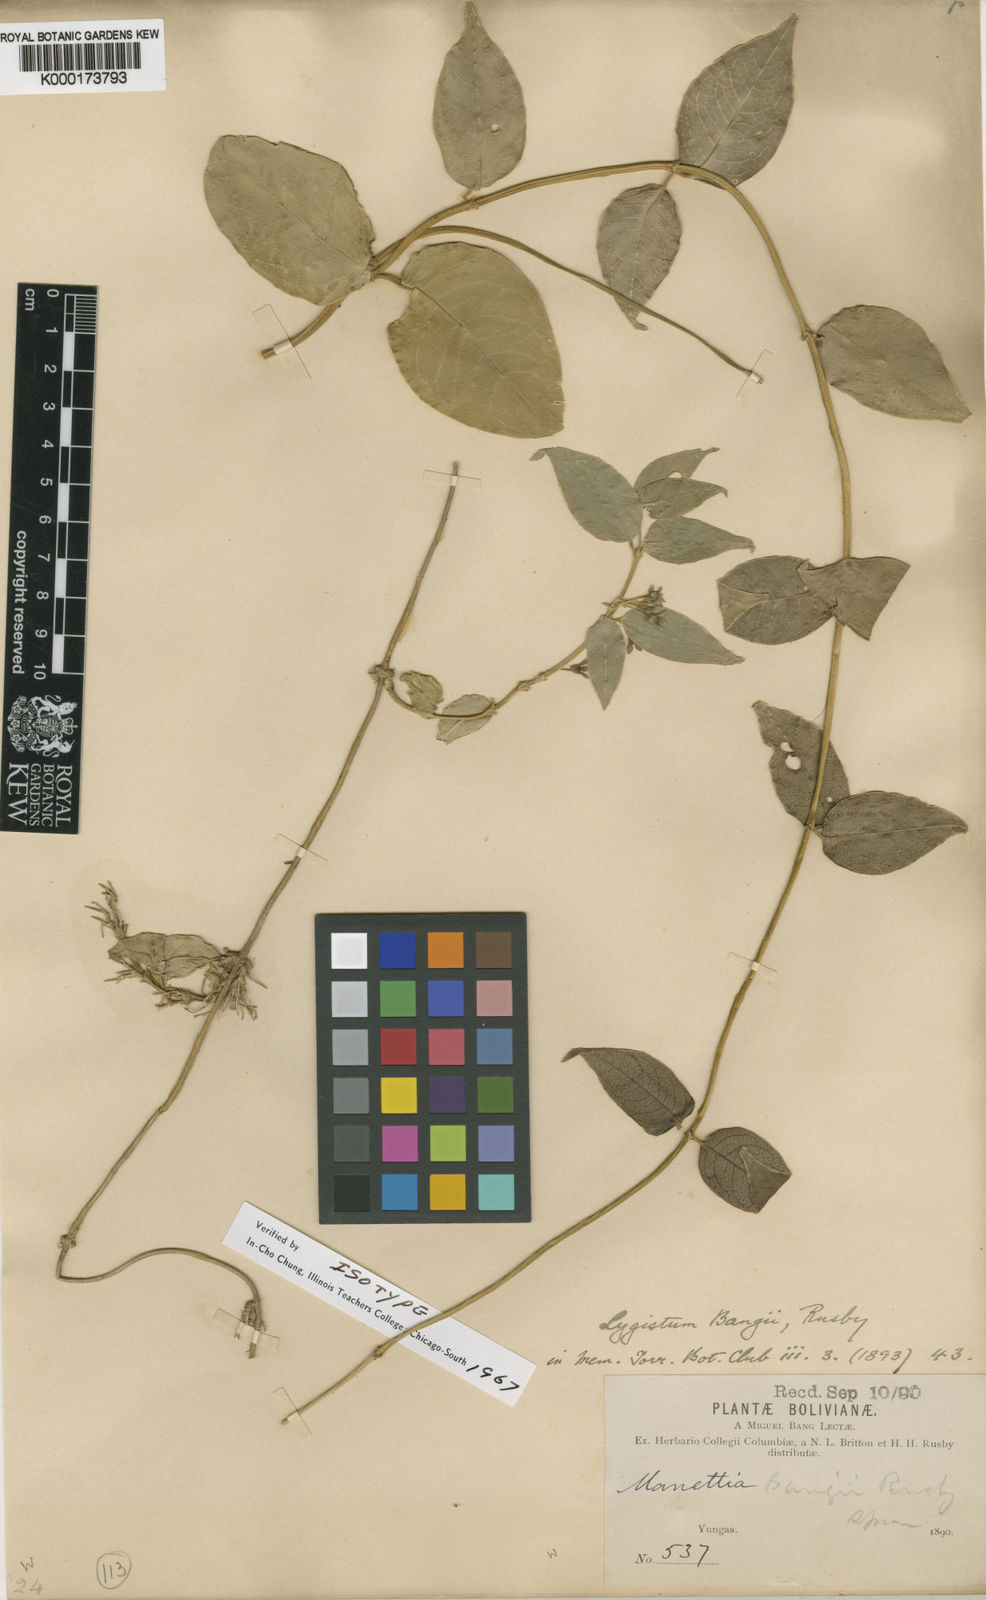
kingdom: Plantae
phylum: Tracheophyta
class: Magnoliopsida
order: Gentianales
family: Rubiaceae
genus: Manettia
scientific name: Manettia bangii
